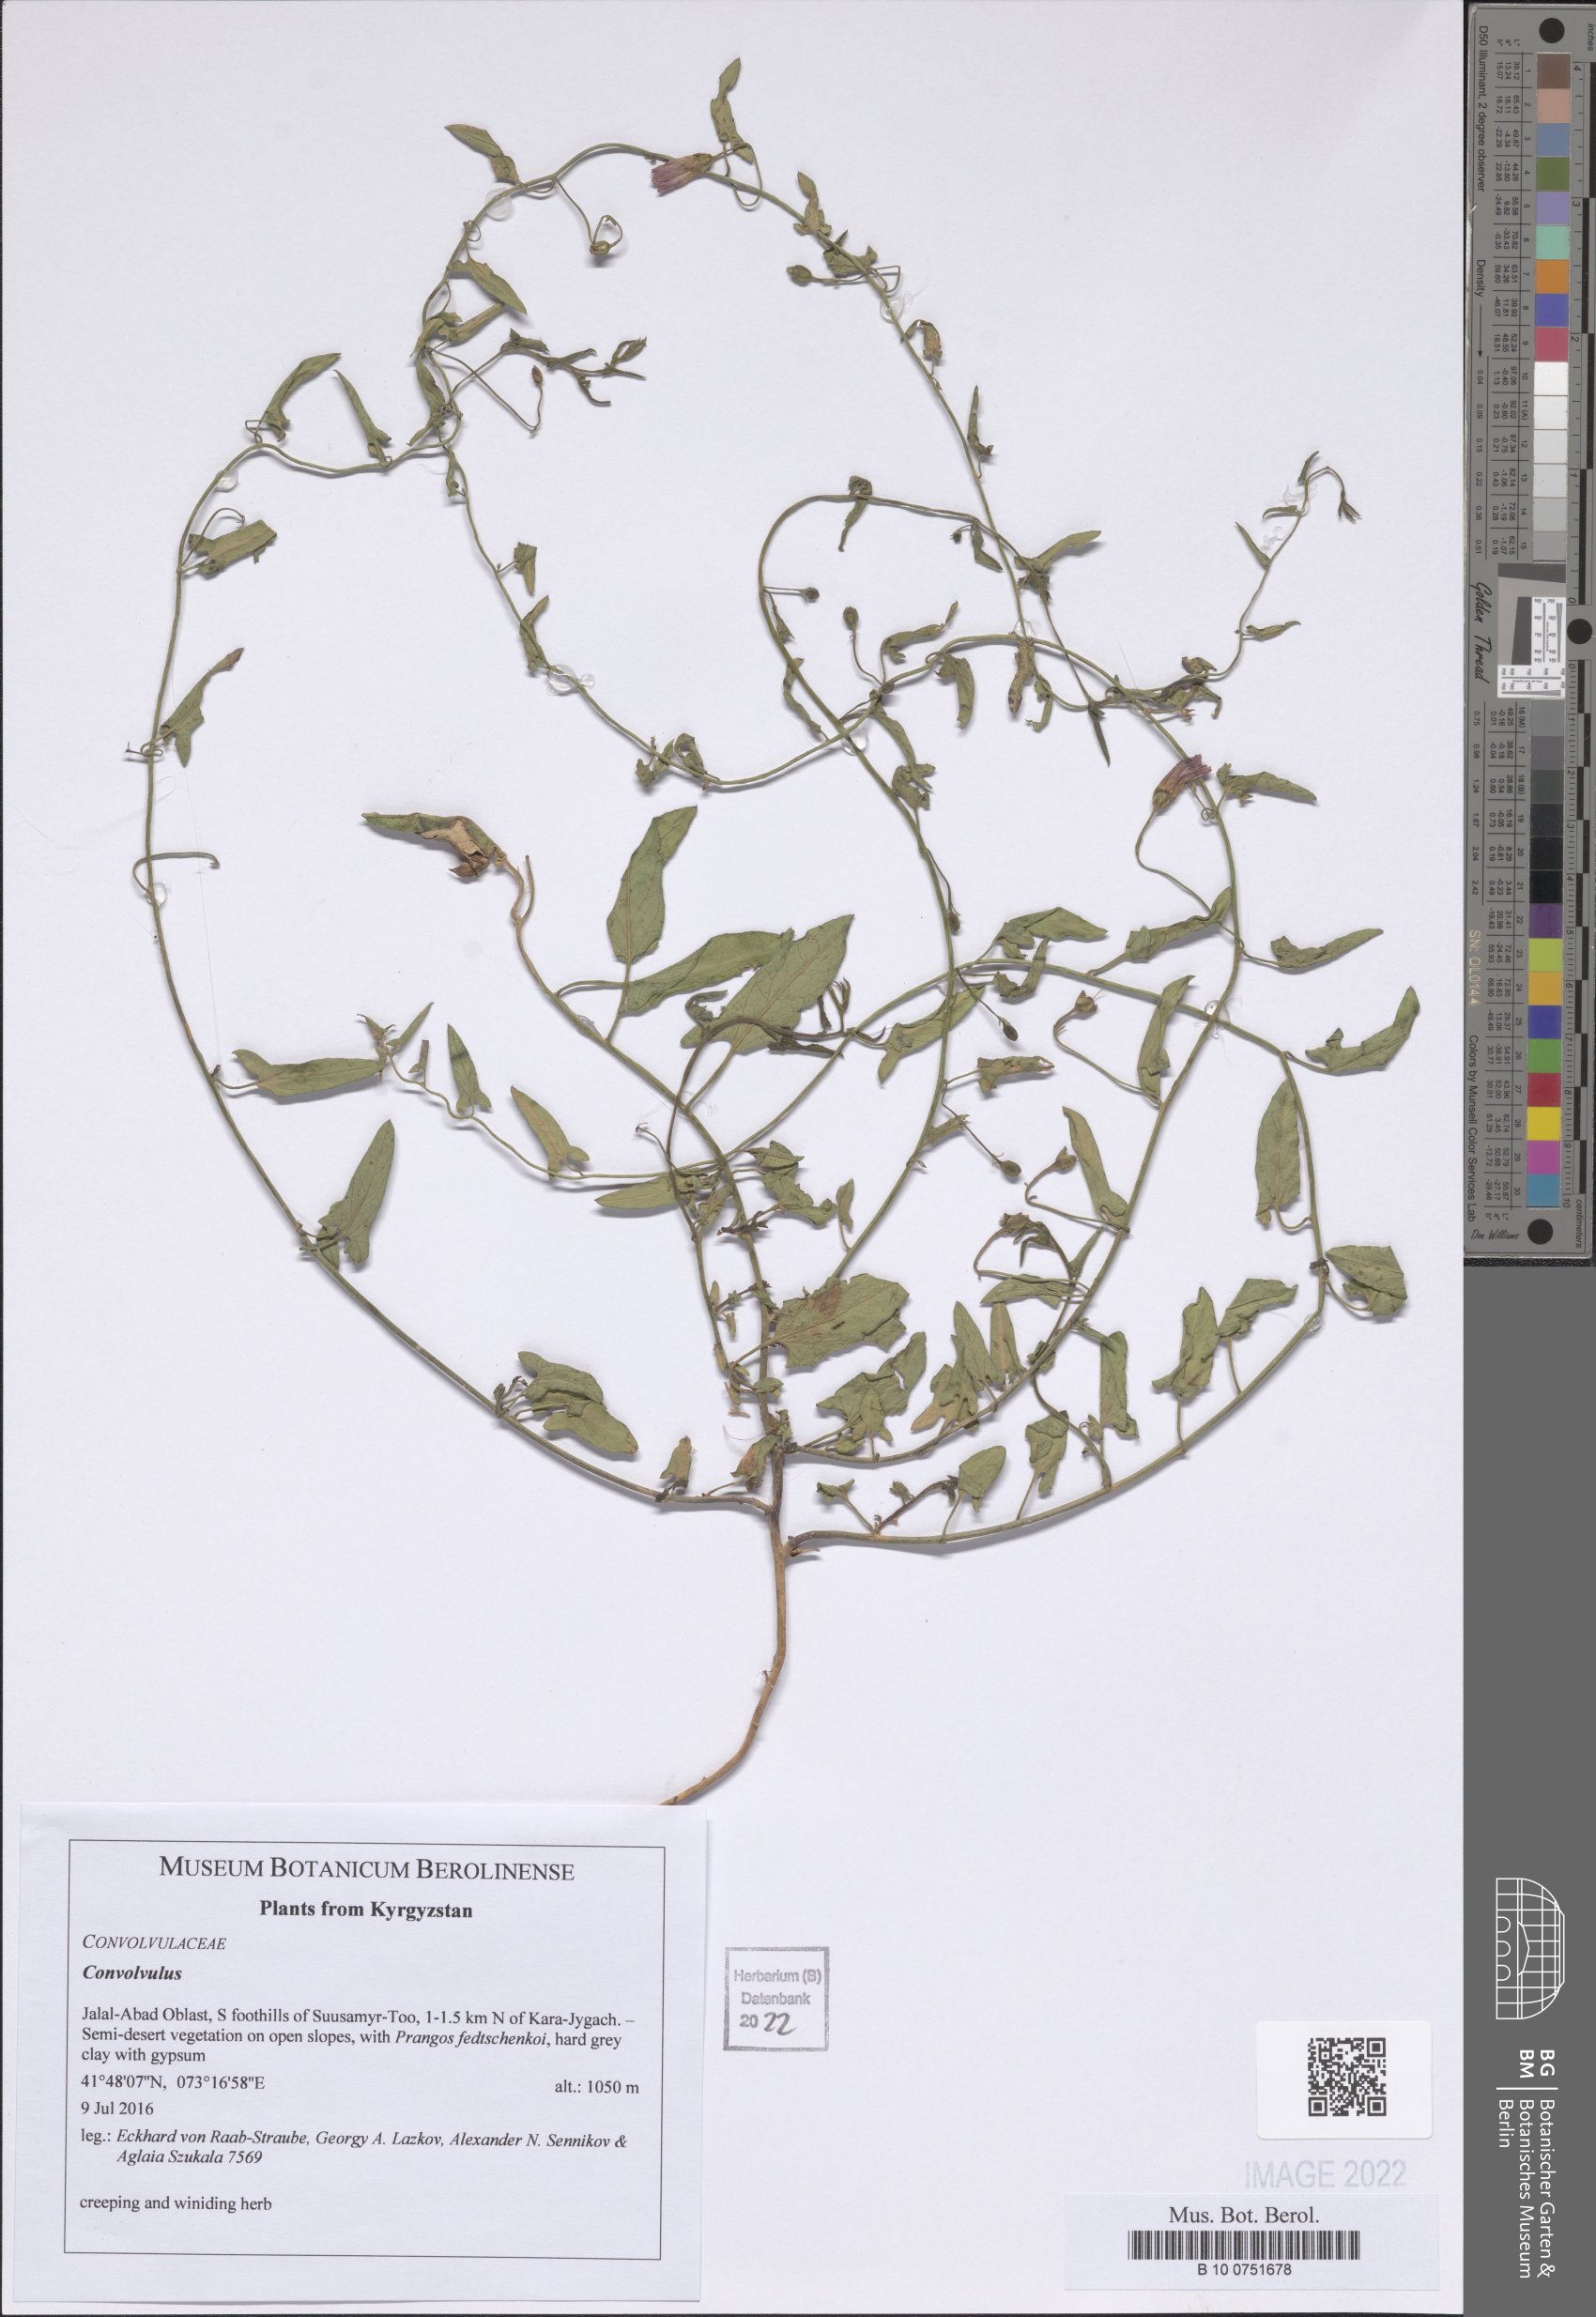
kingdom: Plantae
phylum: Tracheophyta
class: Magnoliopsida
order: Solanales
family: Convolvulaceae
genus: Convolvulus
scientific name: Convolvulus
